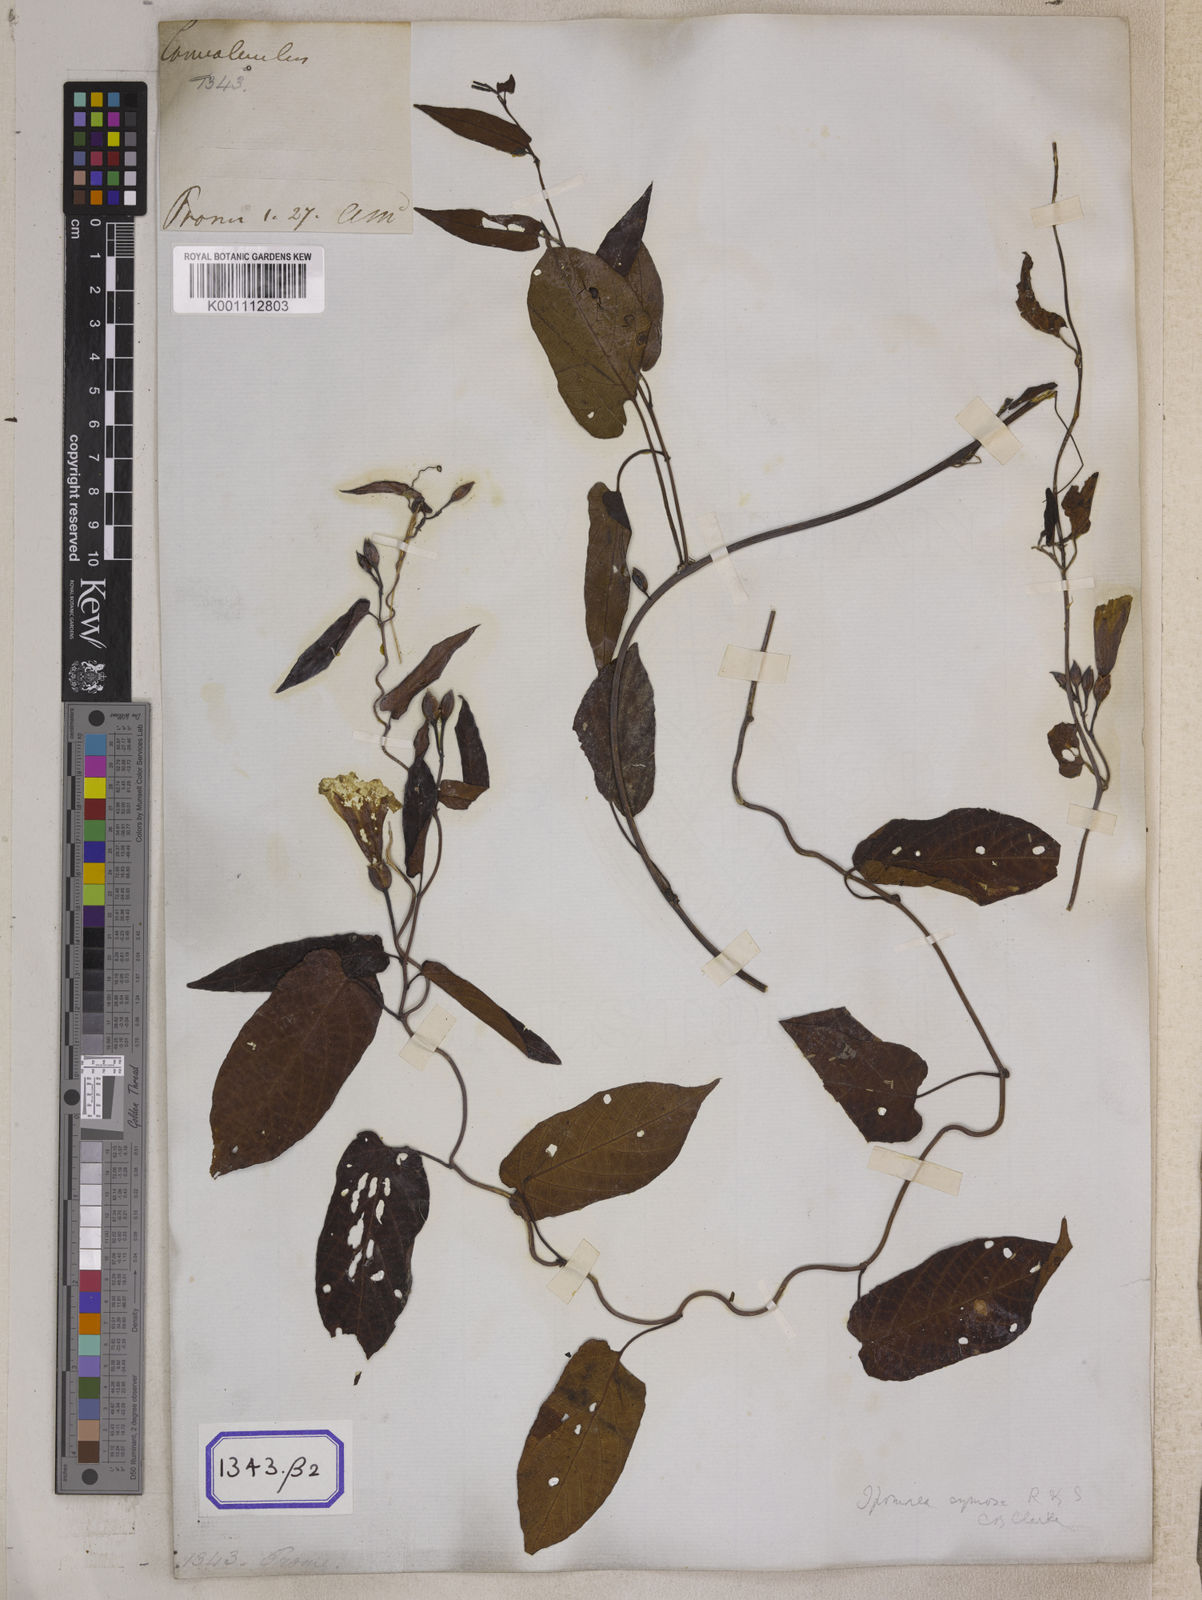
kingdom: Plantae
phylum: Tracheophyta
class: Magnoliopsida
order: Solanales
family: Convolvulaceae
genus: Convolvulus
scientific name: Convolvulus
